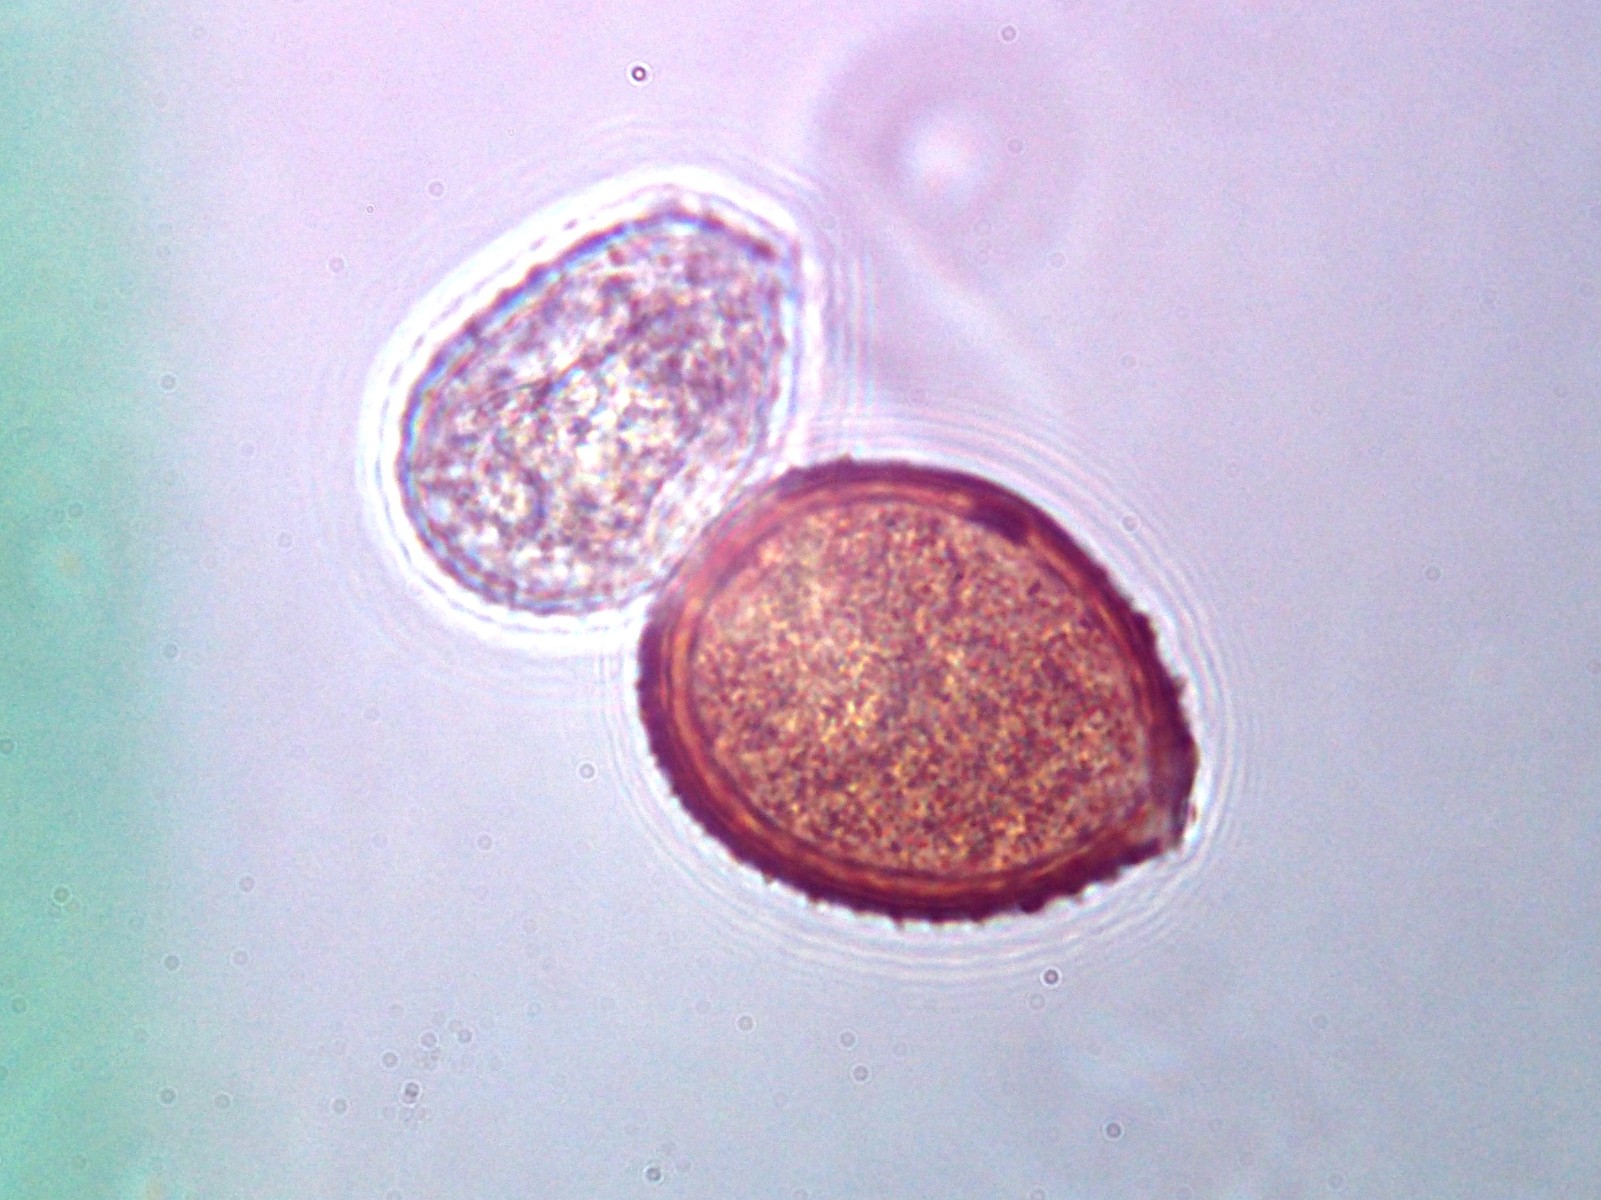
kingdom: Fungi
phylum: Basidiomycota
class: Pucciniomycetes
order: Pucciniales
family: Pucciniaceae
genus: Puccinia
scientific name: Puccinia pimpinellae
